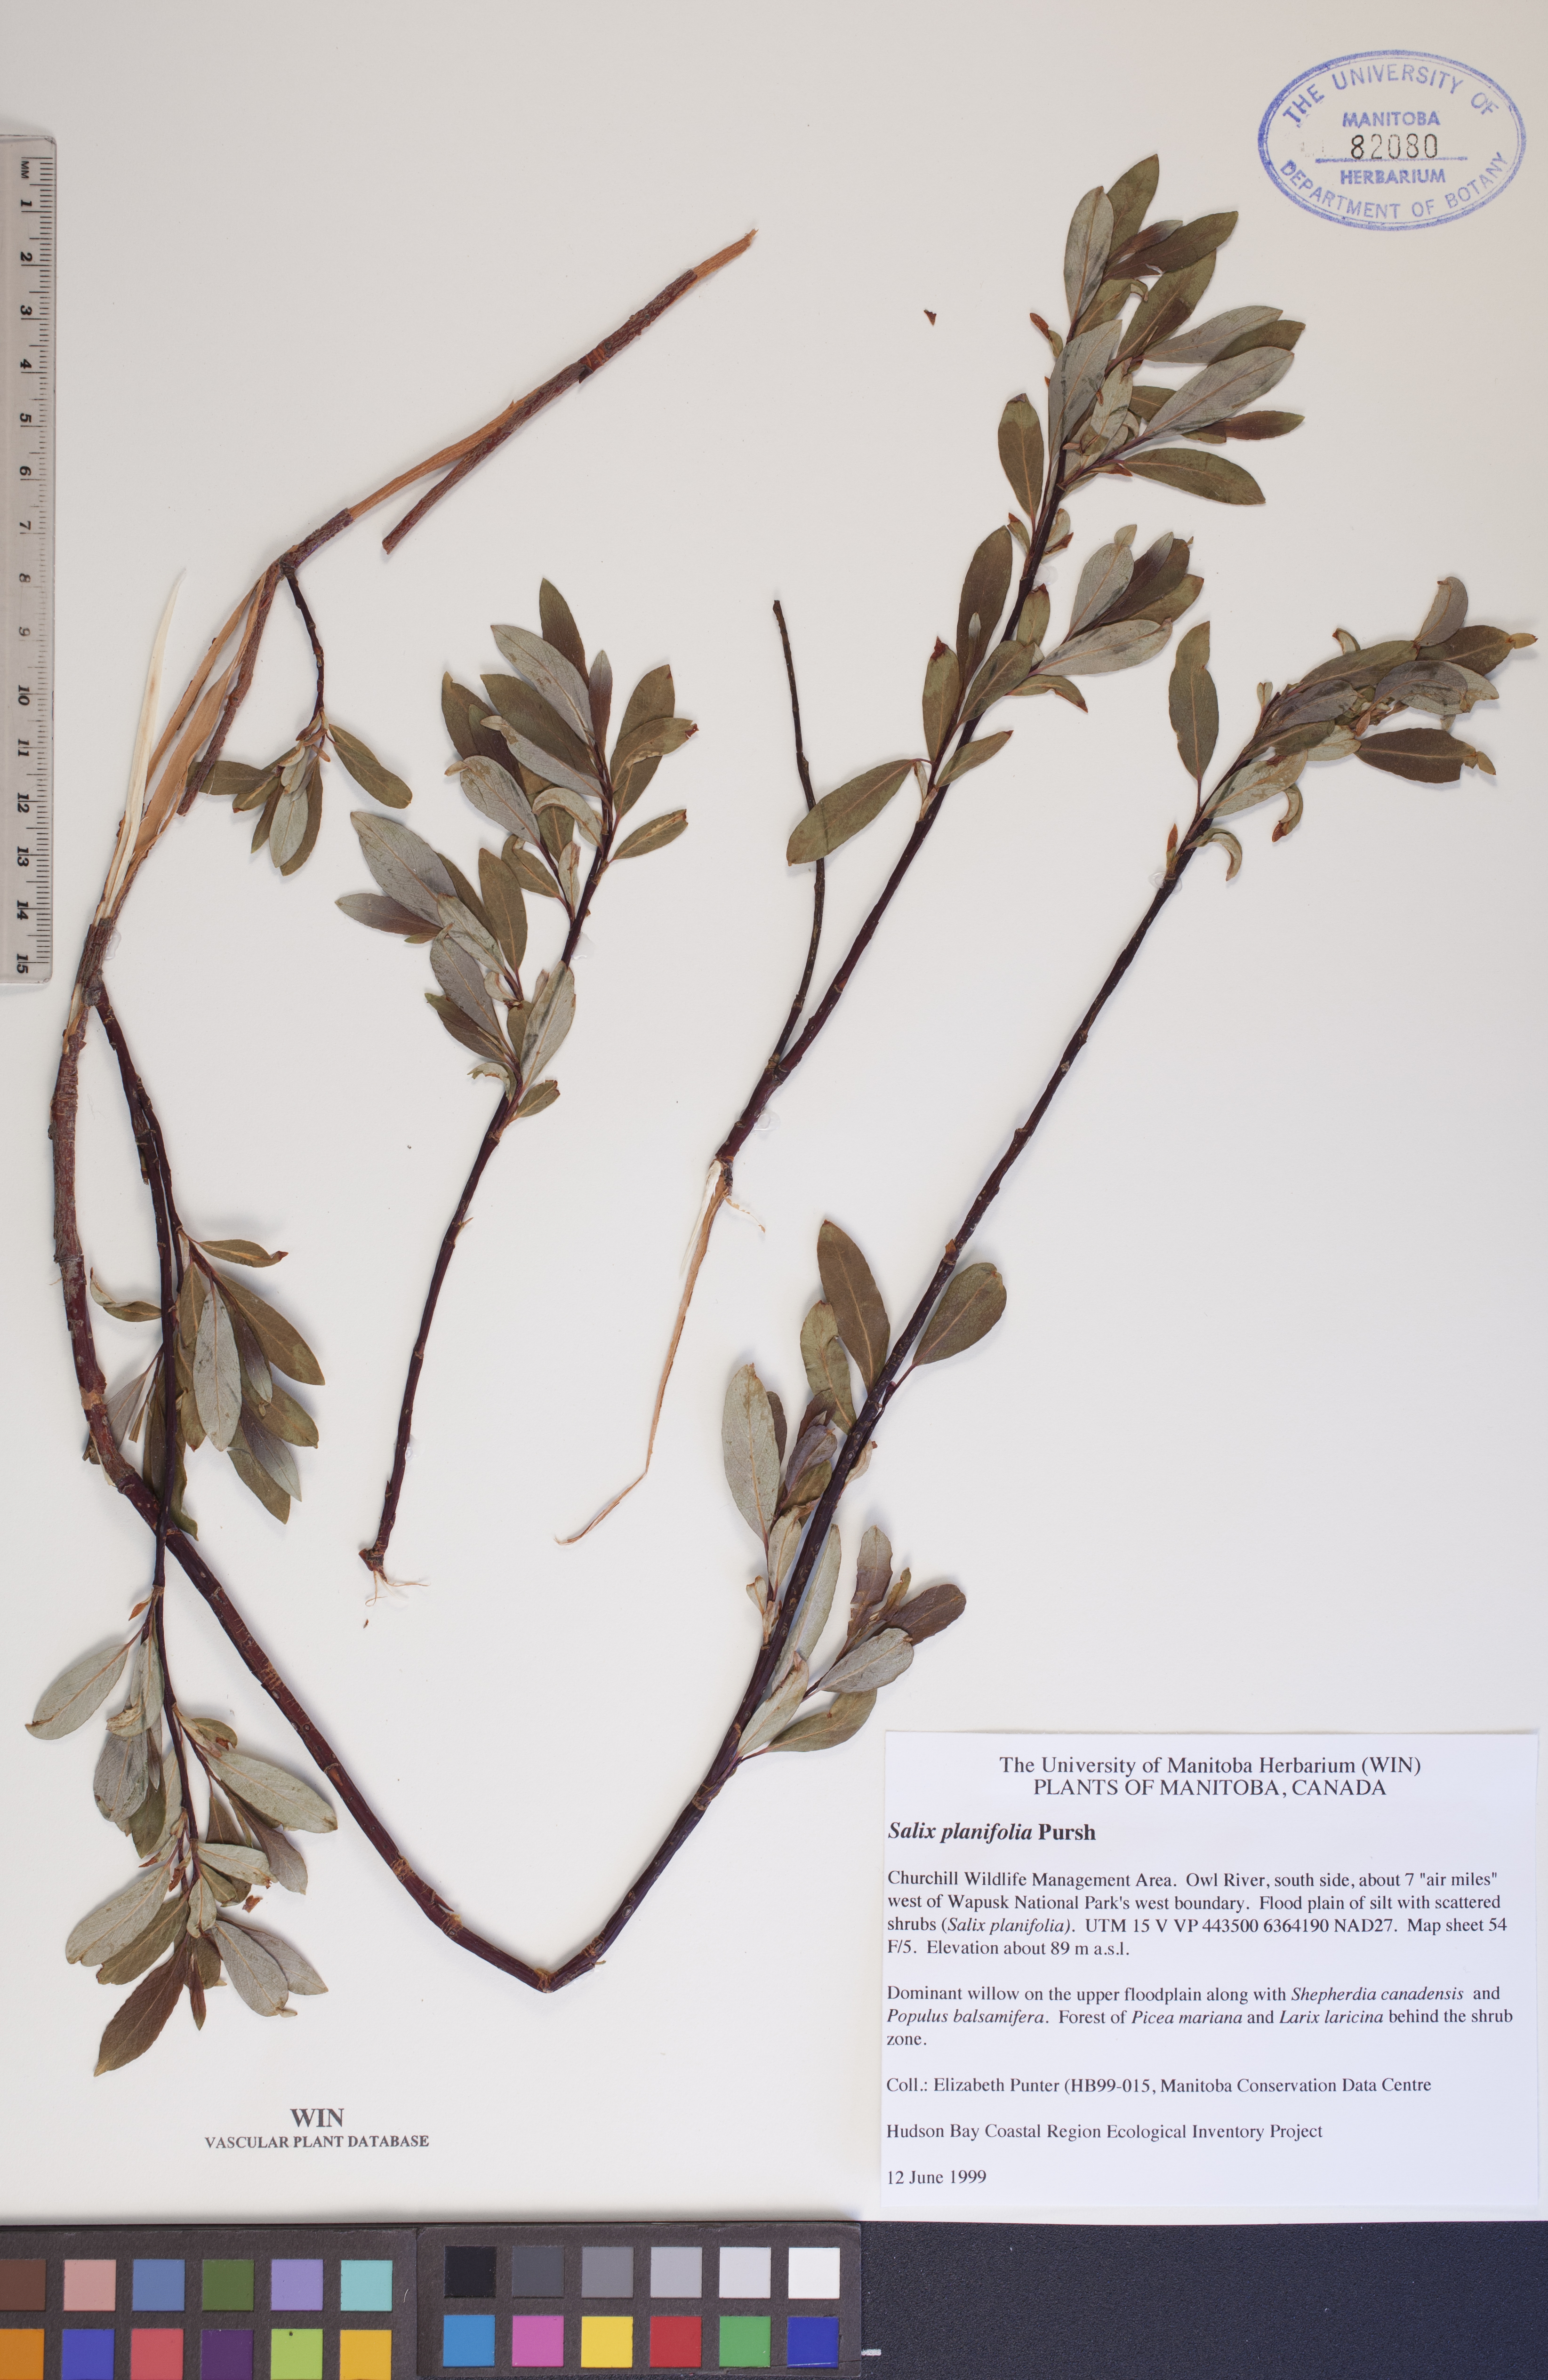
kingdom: Plantae
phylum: Tracheophyta
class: Magnoliopsida
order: Malpighiales
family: Salicaceae
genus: Salix
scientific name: Salix planifolia
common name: Mountain willow
